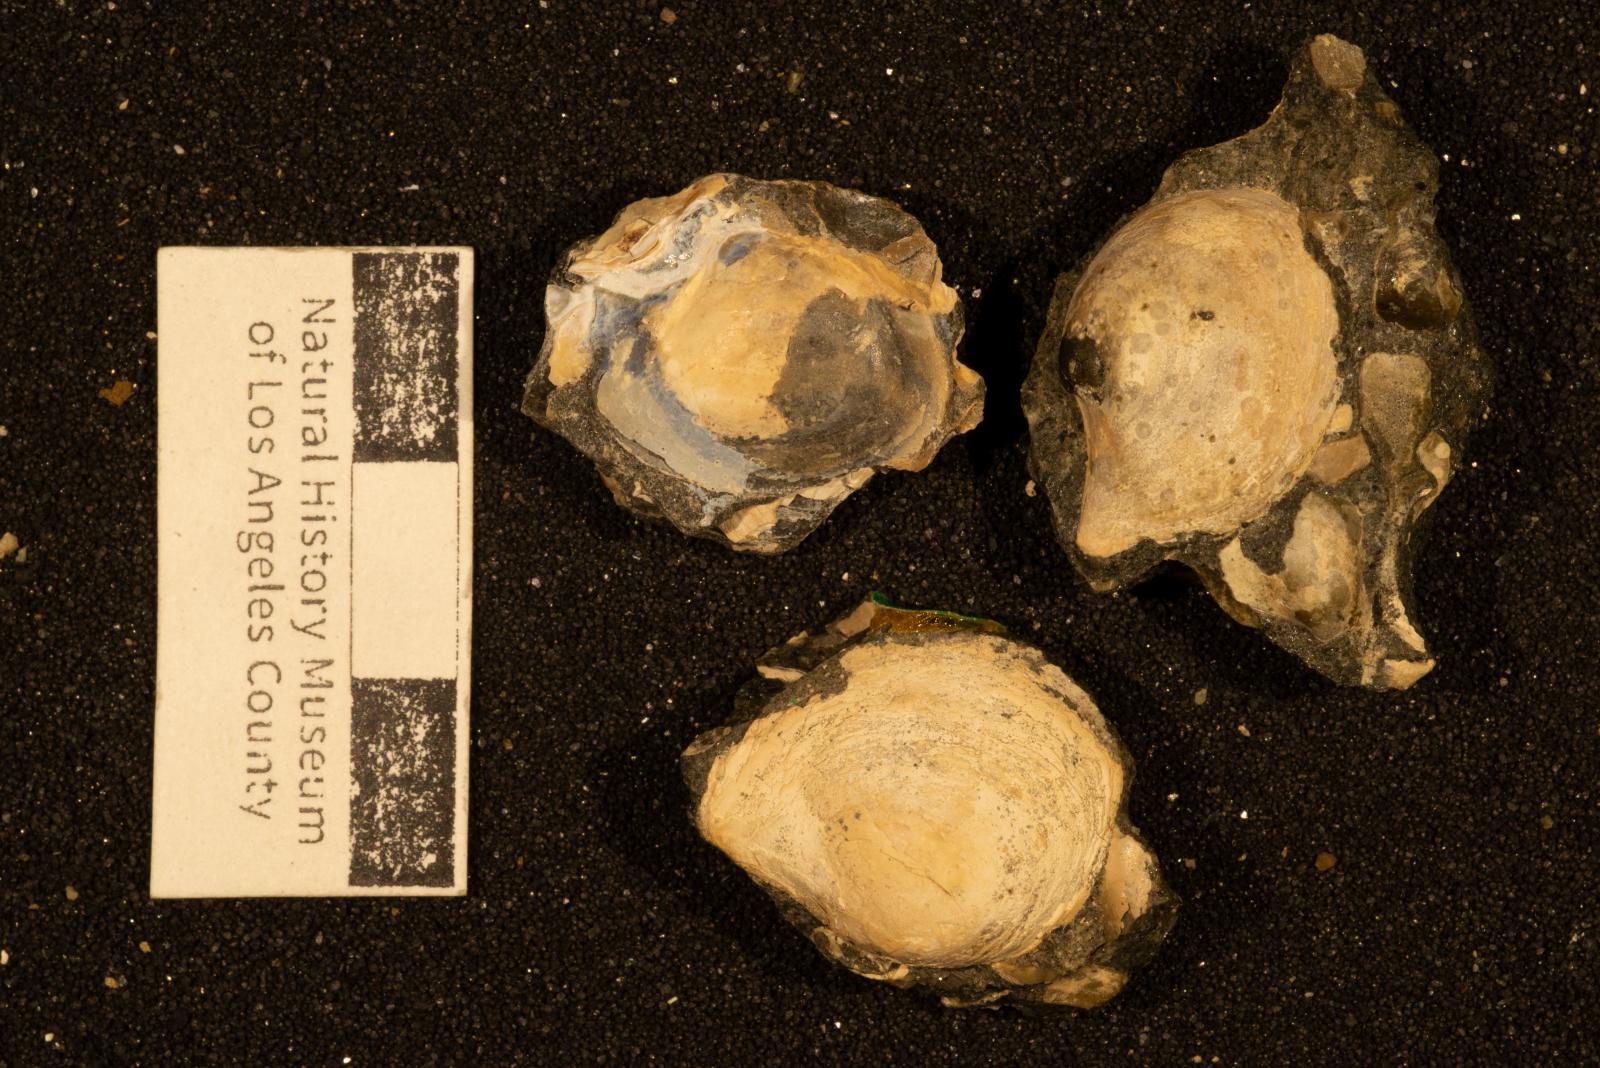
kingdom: Animalia
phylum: Mollusca
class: Bivalvia
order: Cardiida
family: Tancrediidae
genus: Meekia
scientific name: Meekia mygale
